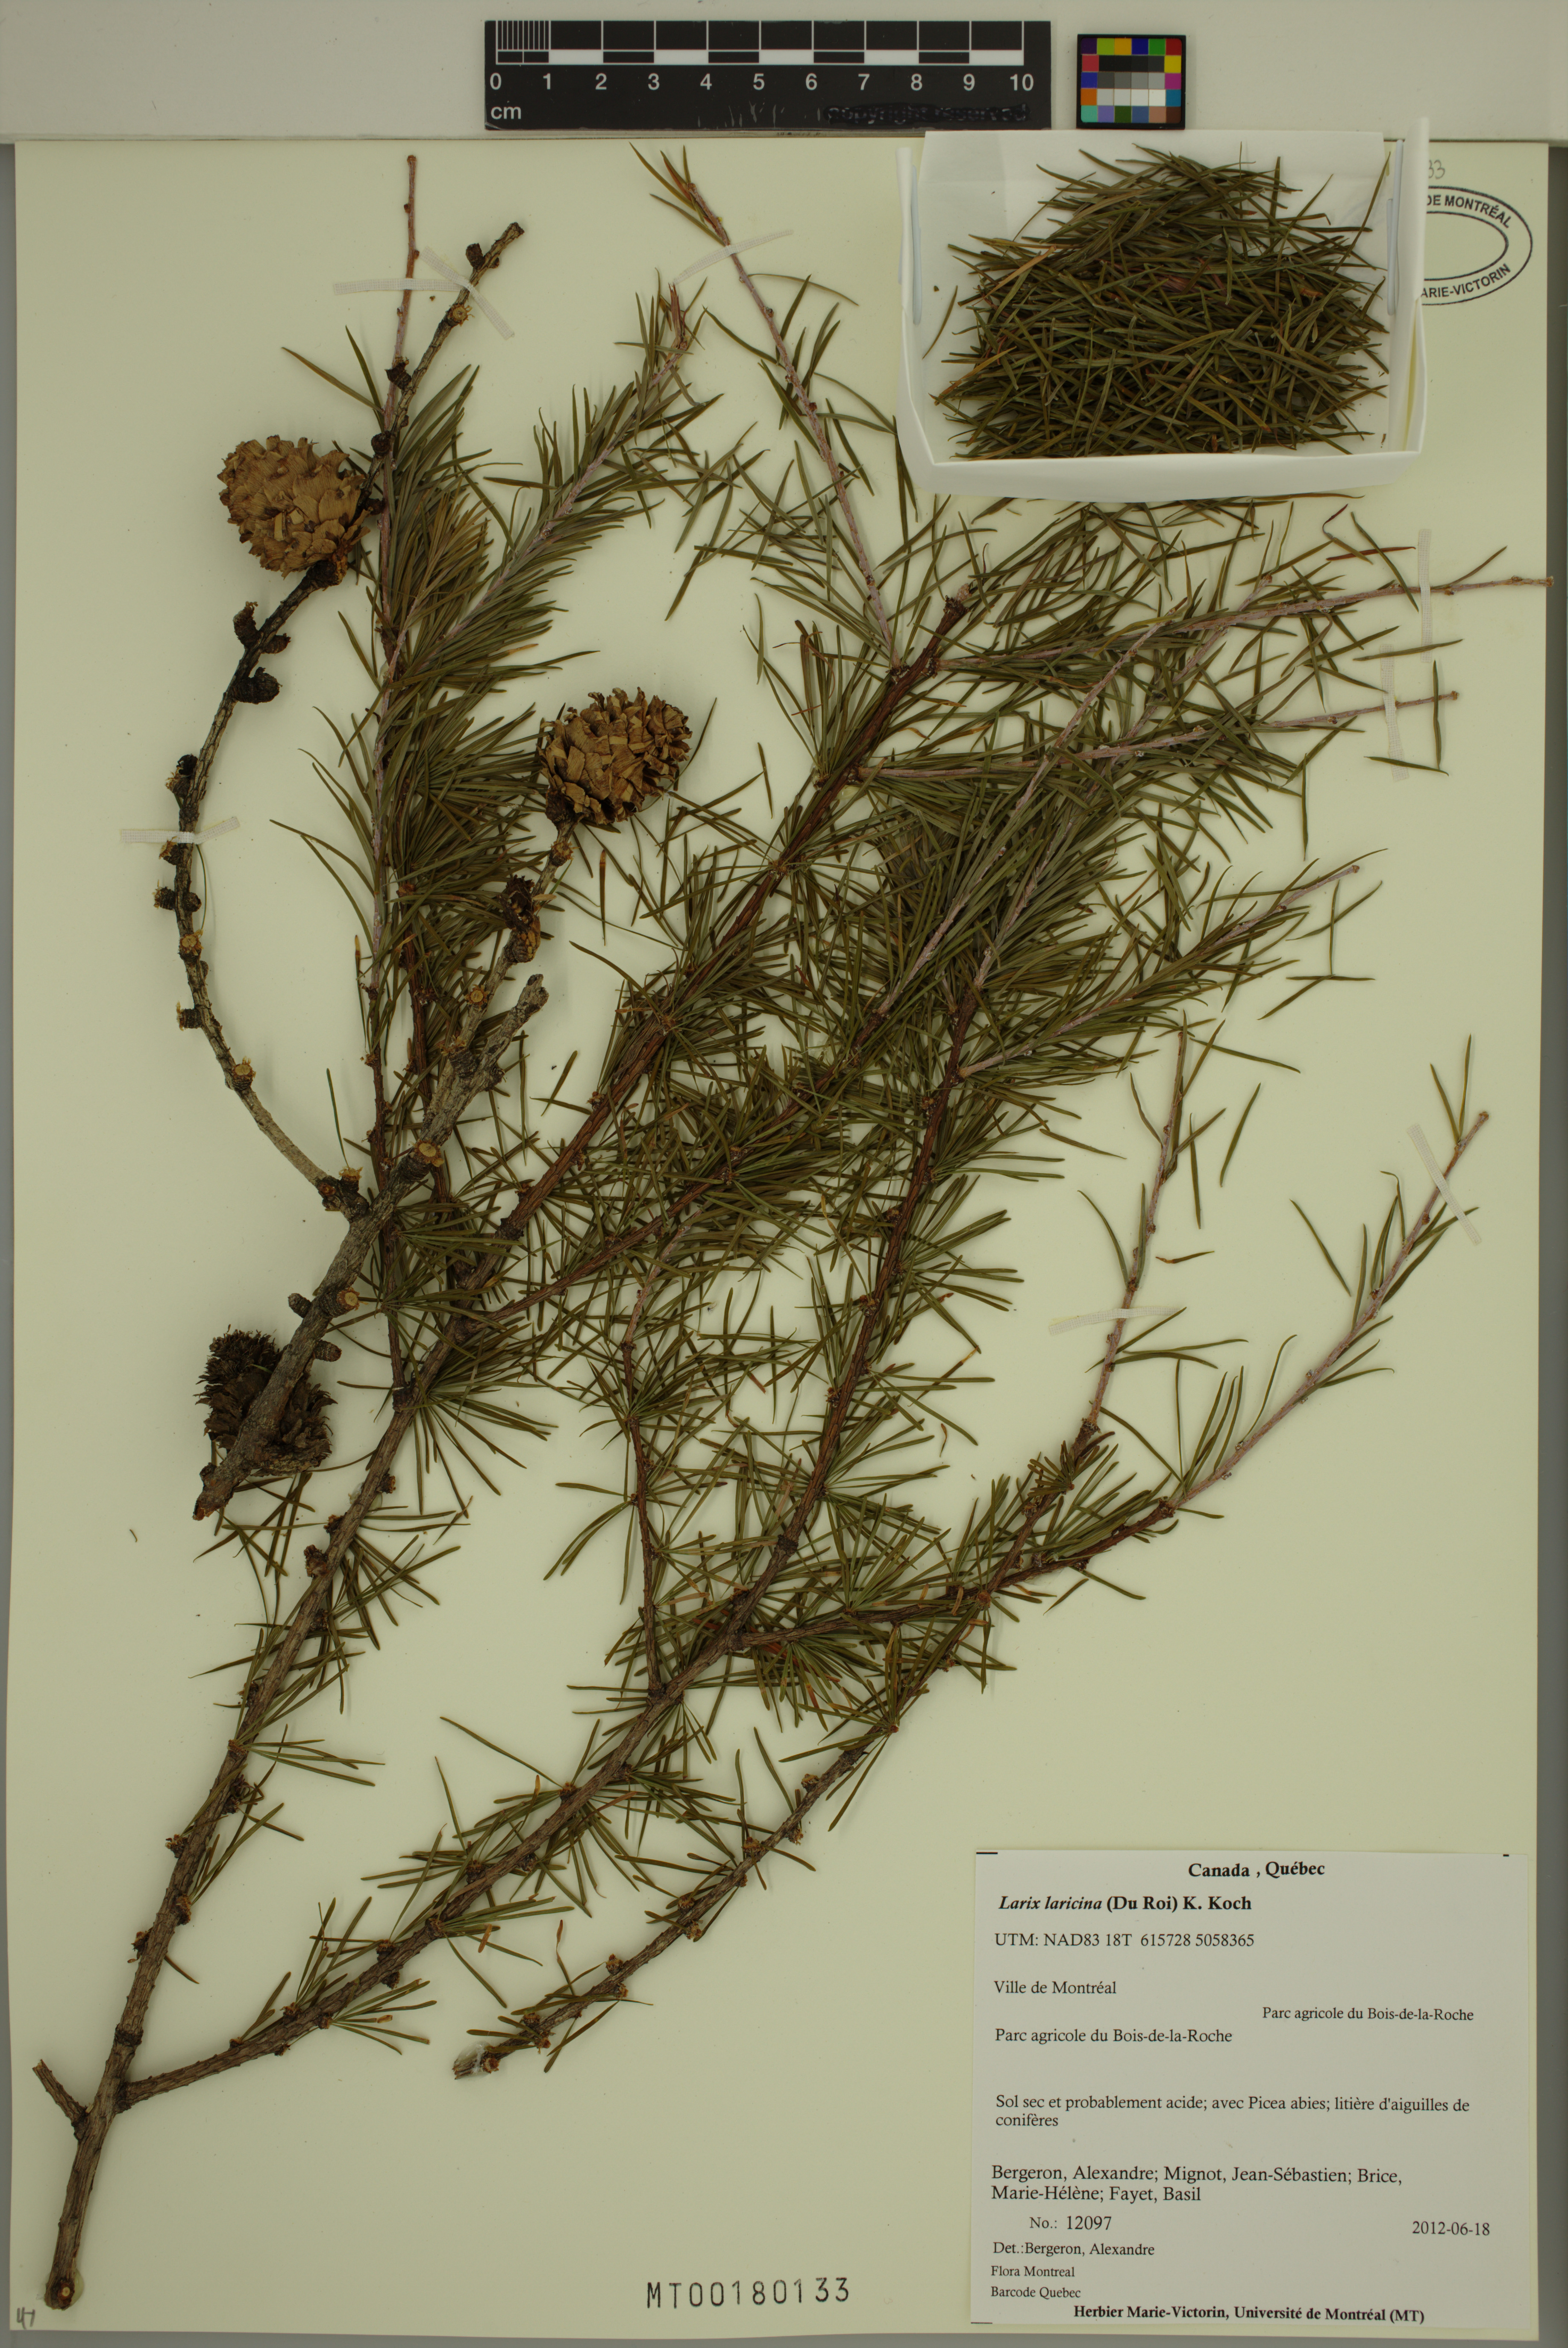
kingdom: Plantae
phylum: Tracheophyta
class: Pinopsida
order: Pinales
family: Pinaceae
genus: Larix
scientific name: Larix laricina
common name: American larch
